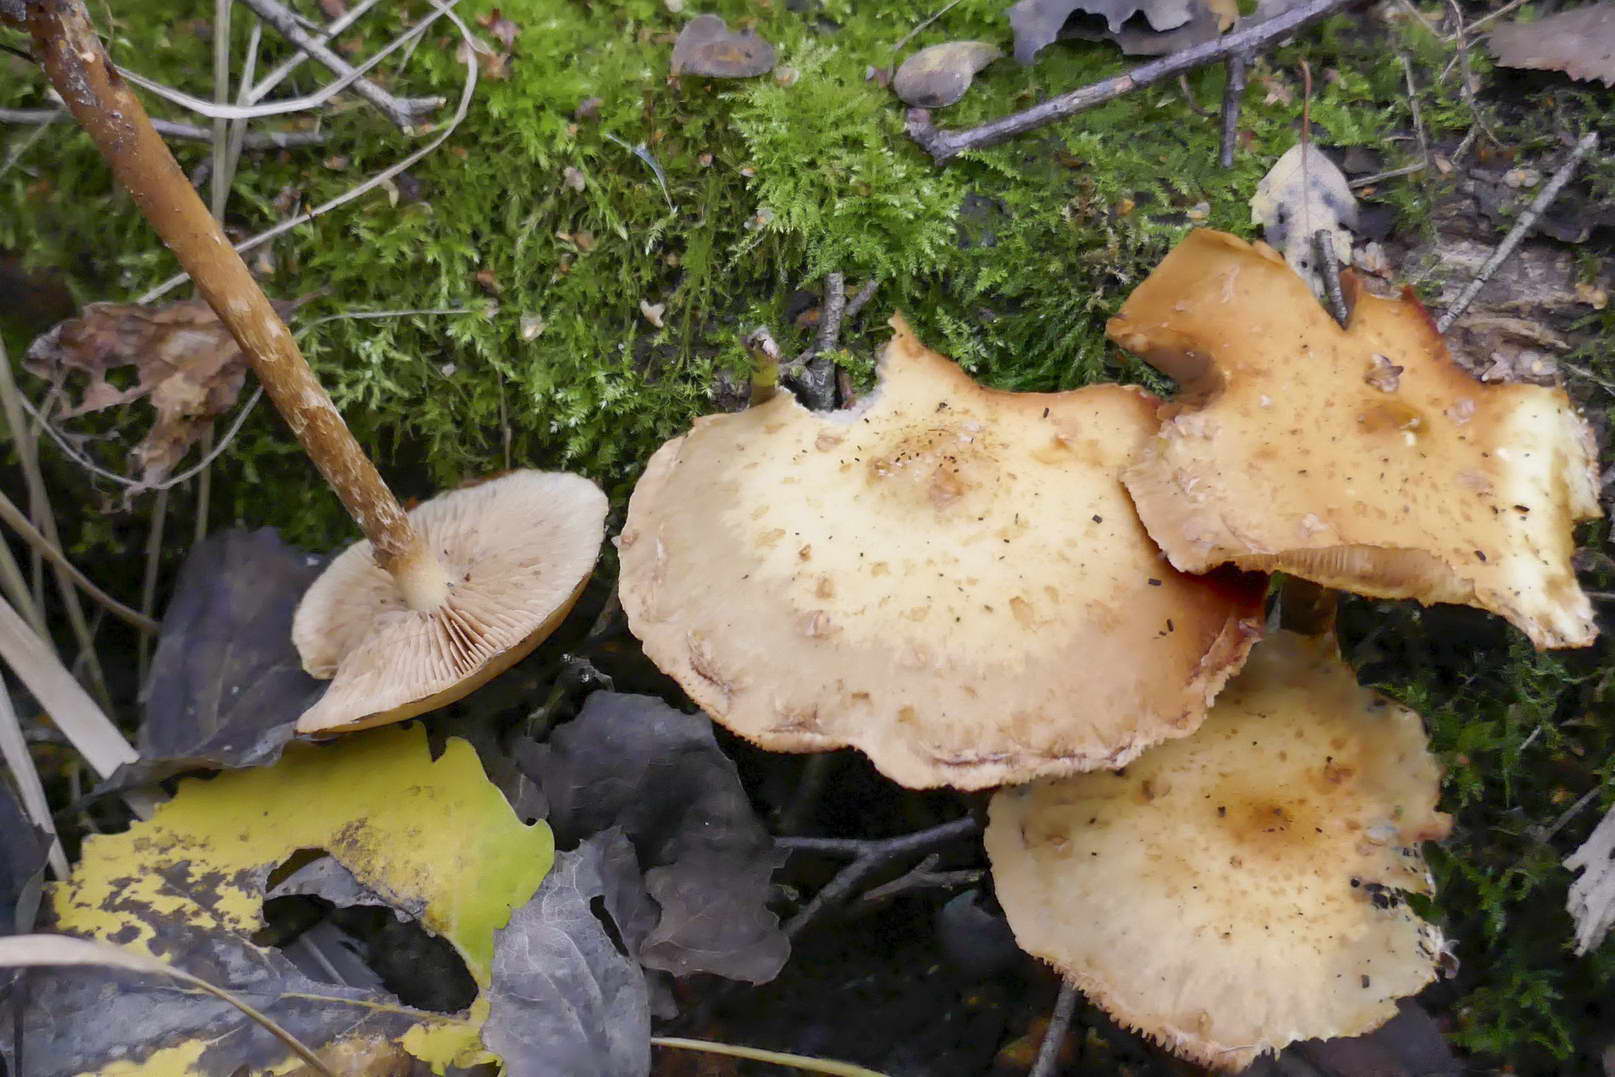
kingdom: Fungi
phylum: Basidiomycota
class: Agaricomycetes
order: Agaricales
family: Strophariaceae
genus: Pholiota
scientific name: Pholiota conissans
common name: pile-skælhat
